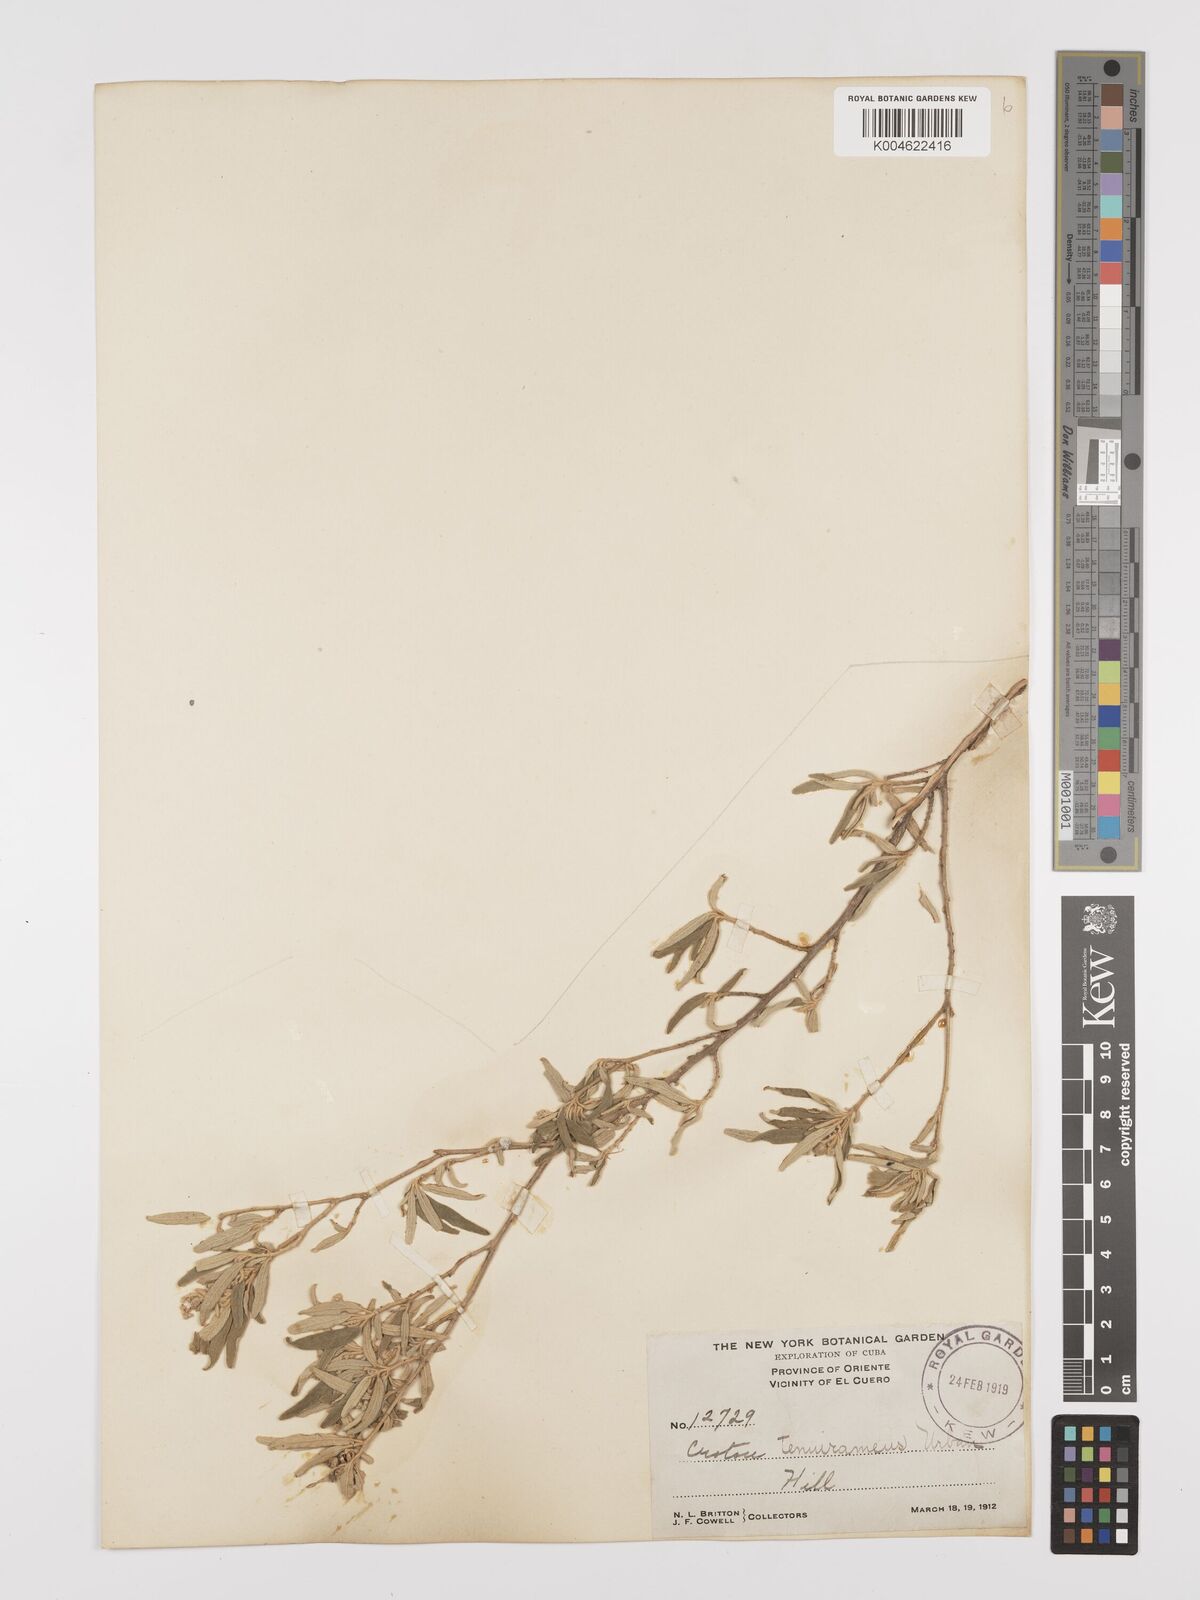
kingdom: Plantae
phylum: Tracheophyta
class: Magnoliopsida
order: Malpighiales
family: Euphorbiaceae
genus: Croton
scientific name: Croton stenophyllus
